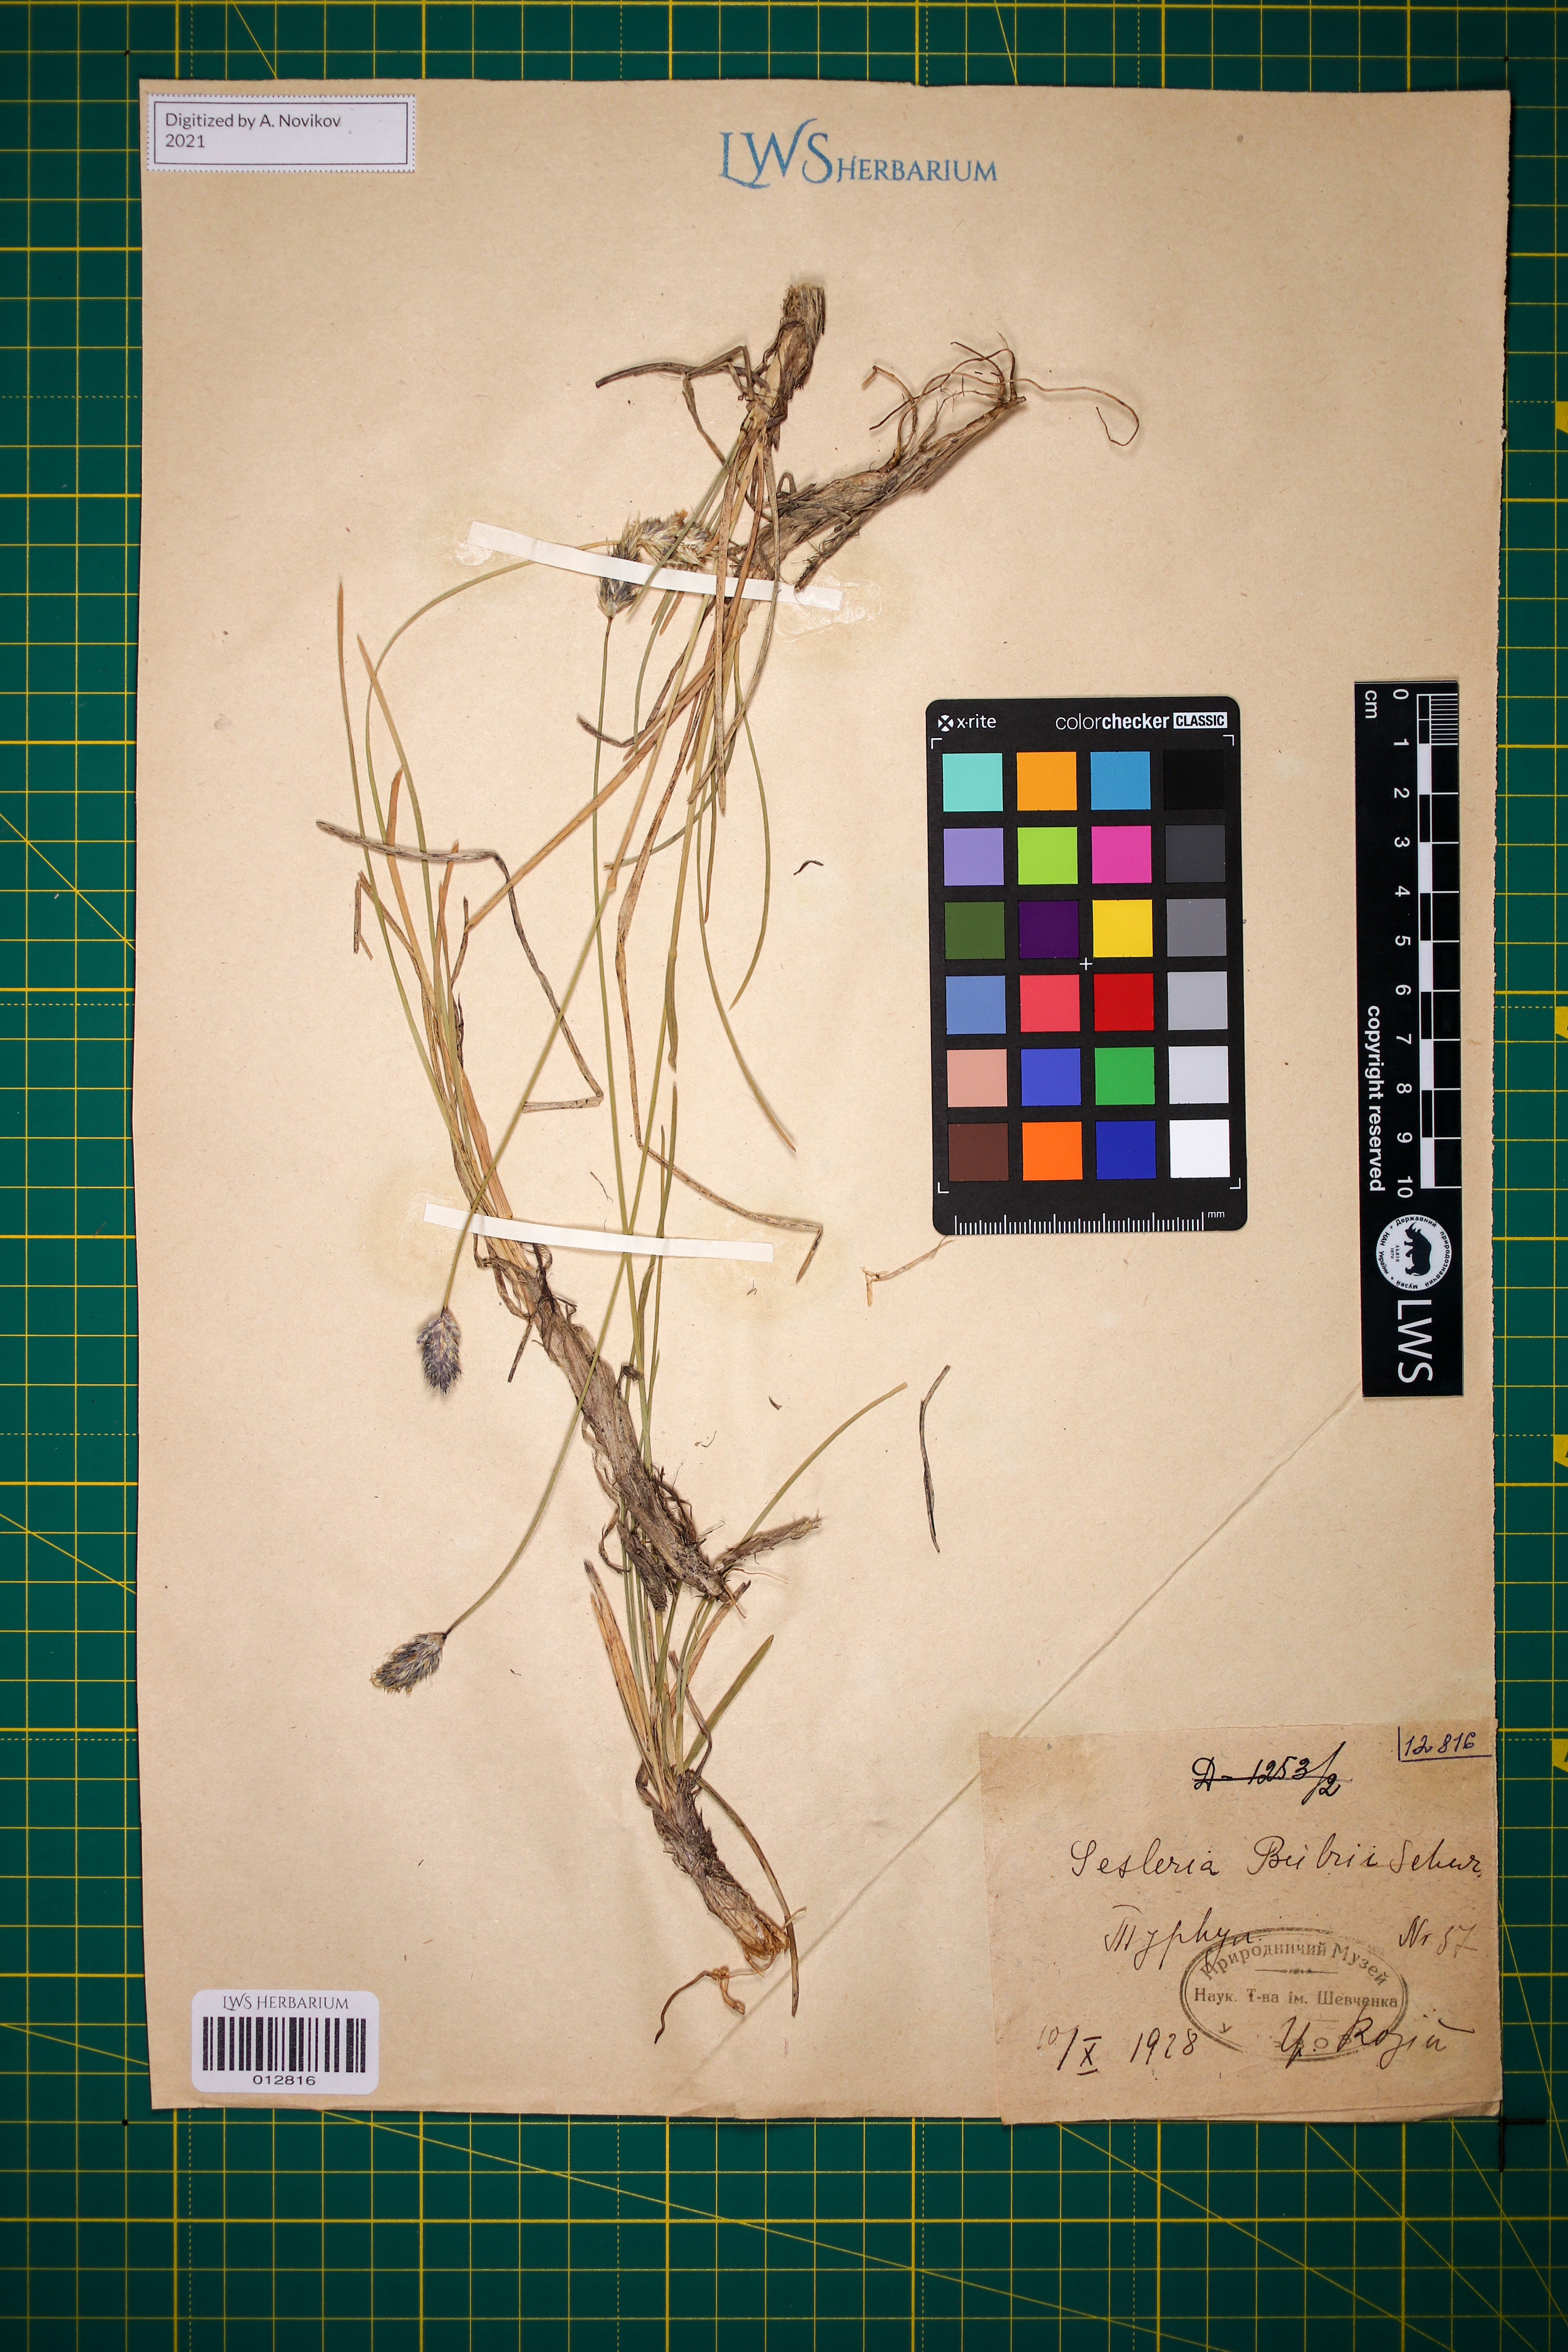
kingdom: Plantae
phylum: Tracheophyta
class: Liliopsida
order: Poales
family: Poaceae
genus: Sesleria
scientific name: Sesleria bielzii
